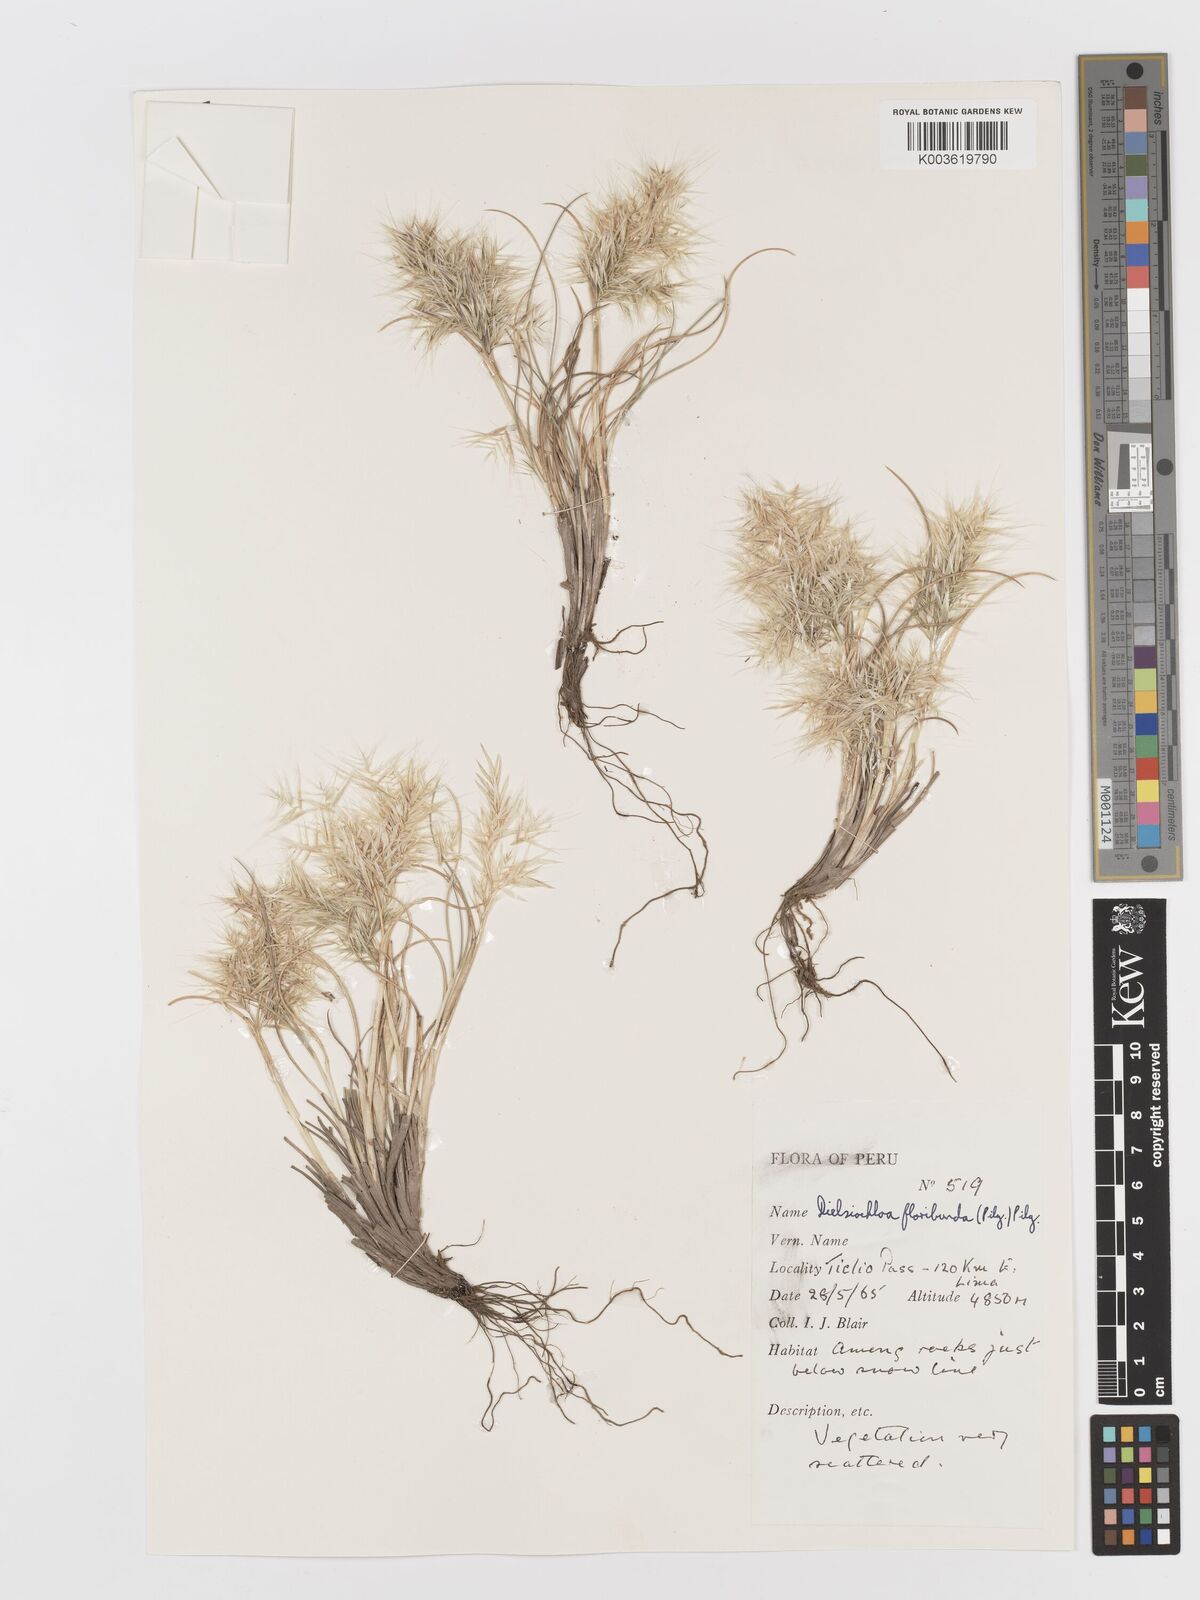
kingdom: Plantae
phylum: Tracheophyta
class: Liliopsida
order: Poales
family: Poaceae
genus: Festuca
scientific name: Festuca floribunda
